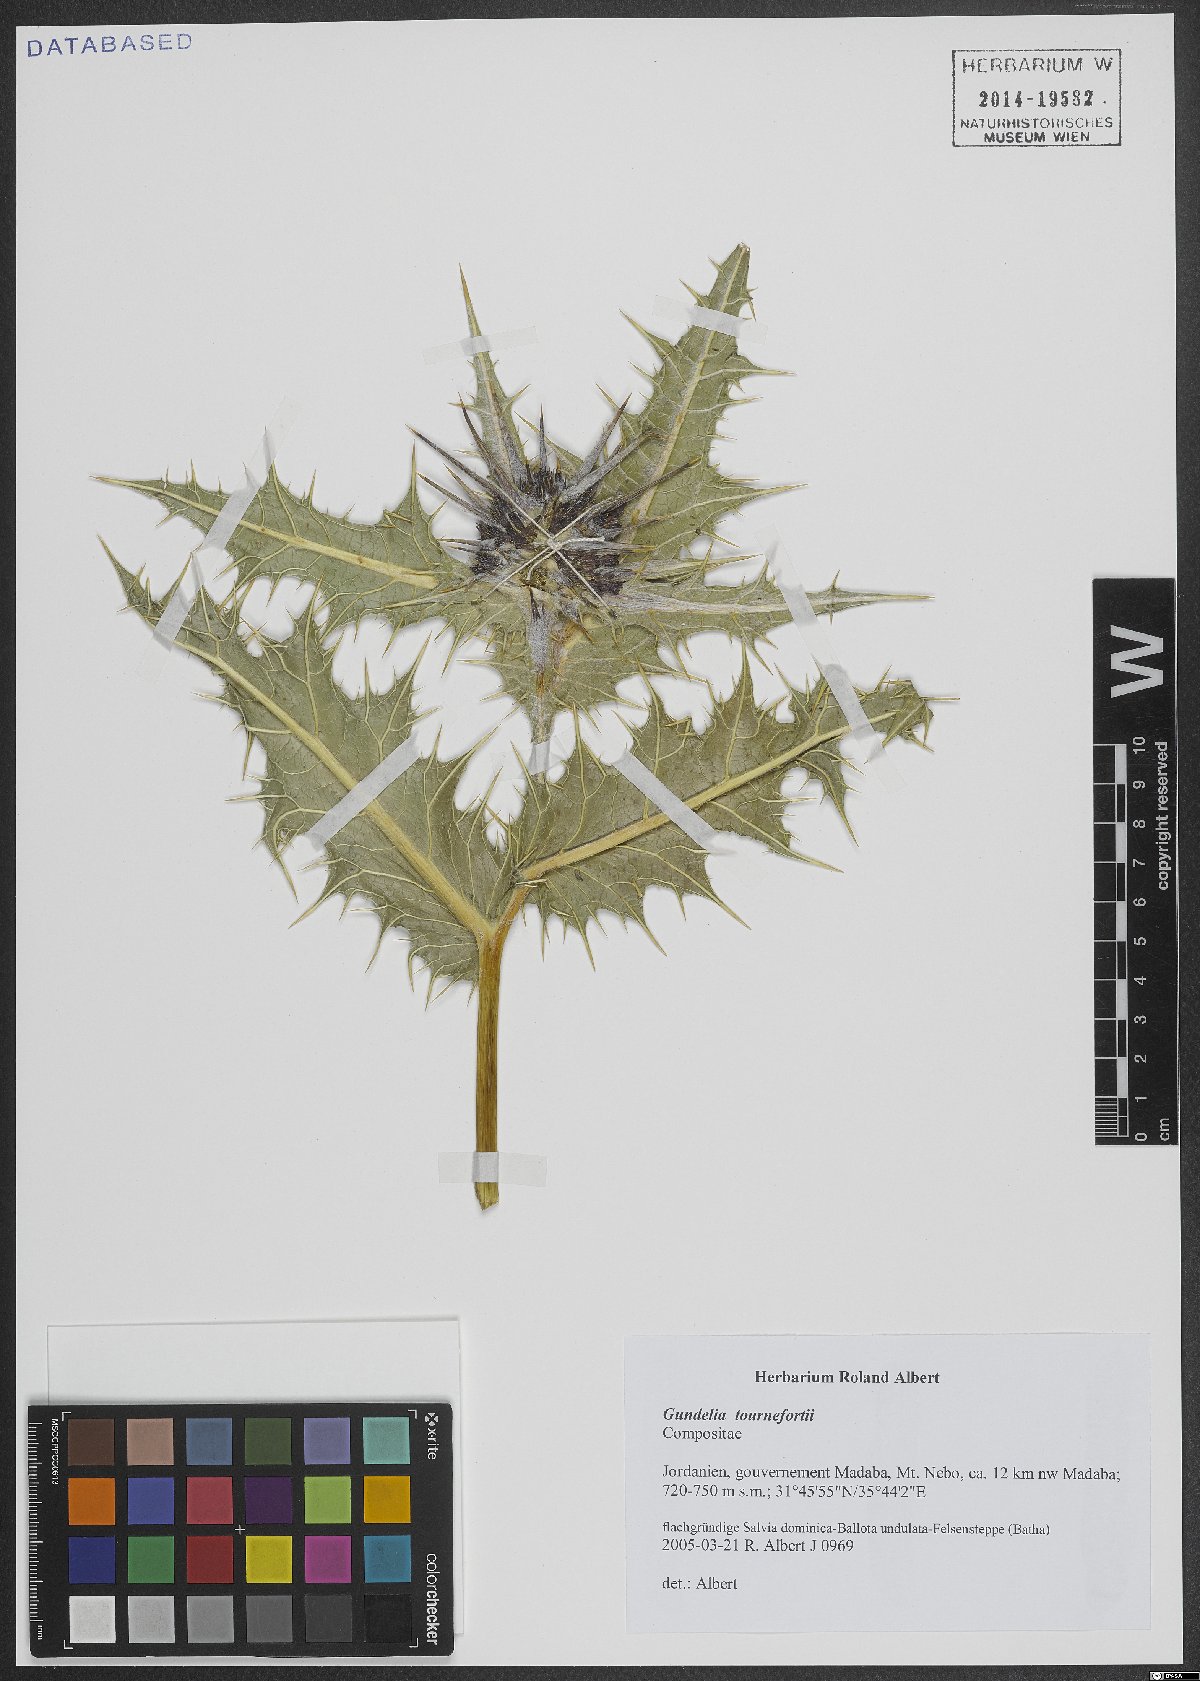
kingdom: Plantae
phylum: Tracheophyta
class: Magnoliopsida
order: Asterales
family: Asteraceae
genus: Gundelia
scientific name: Gundelia tournefortii
